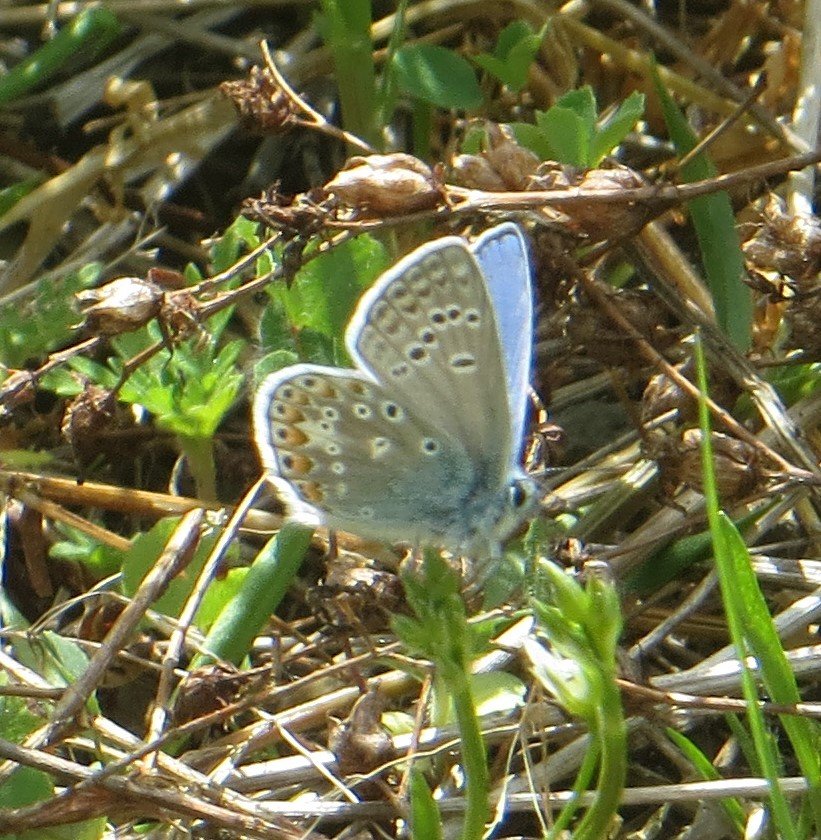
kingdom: Animalia
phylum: Arthropoda
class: Insecta
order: Lepidoptera
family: Lycaenidae
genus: Polyommatus
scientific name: Polyommatus icarus
